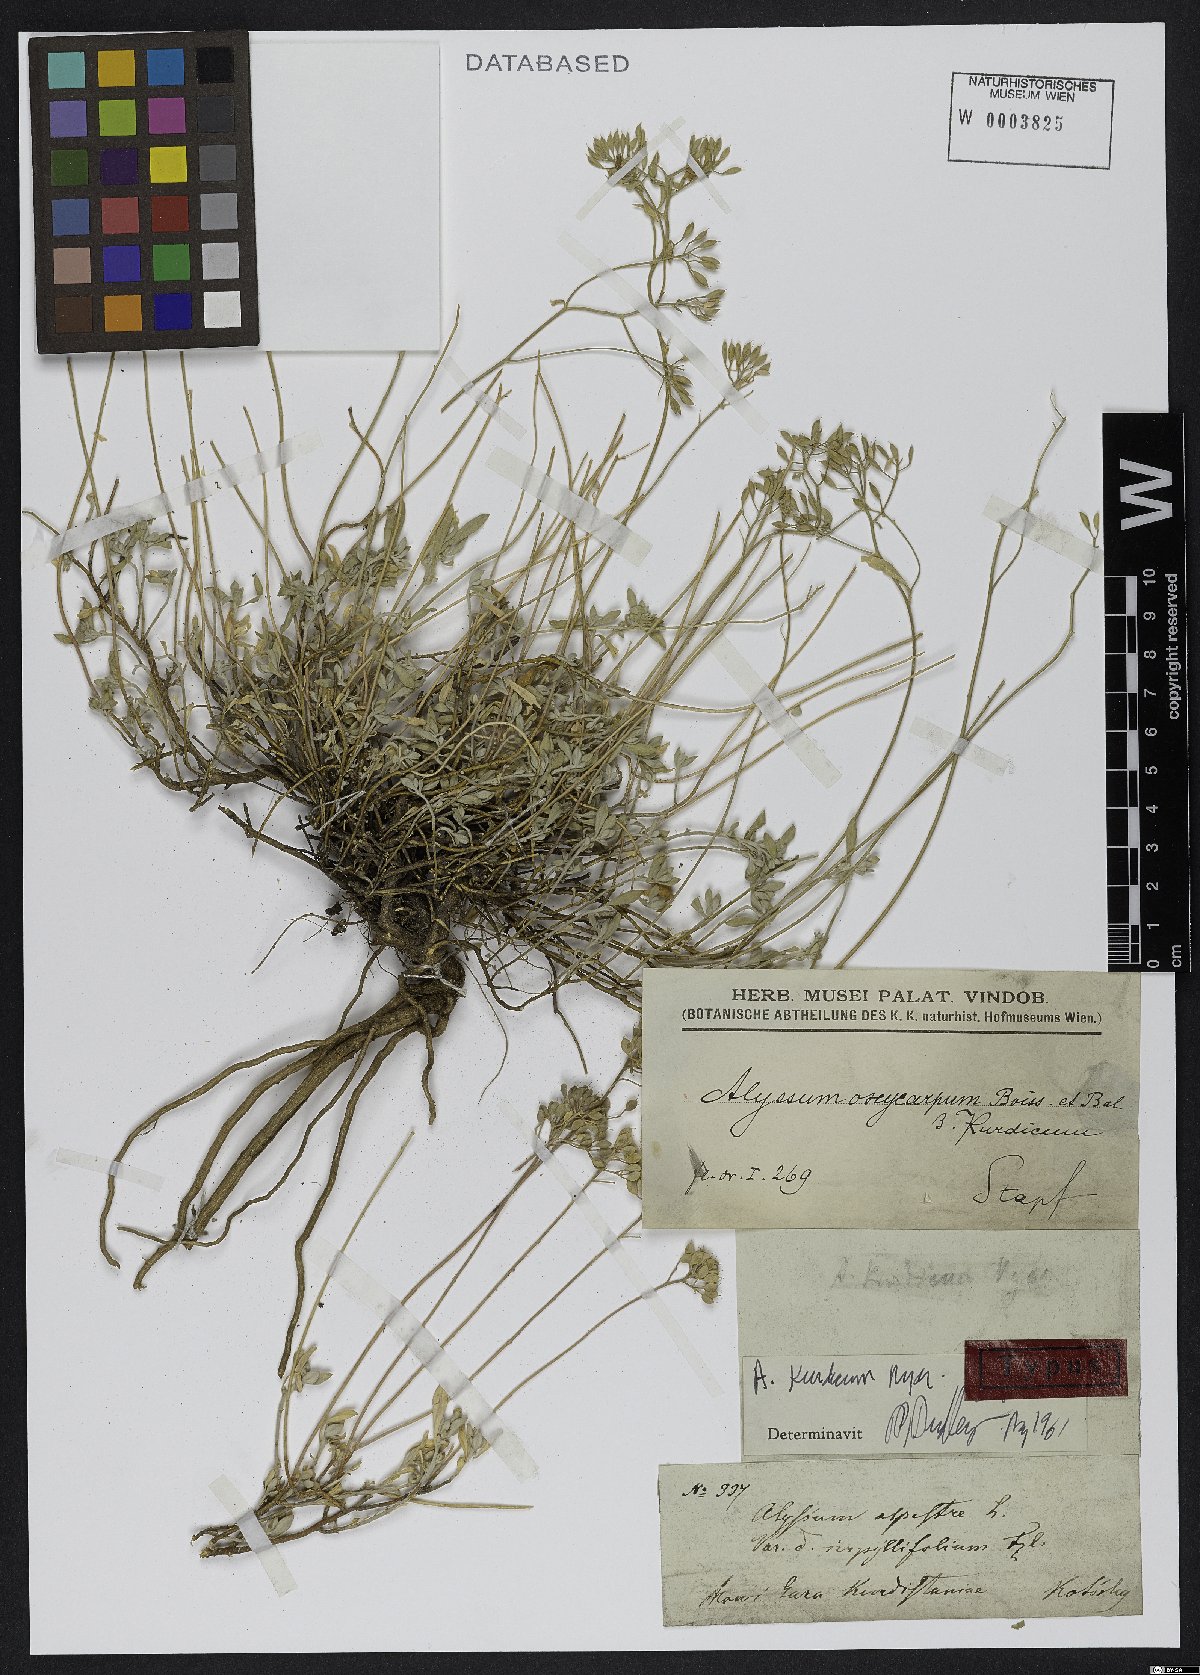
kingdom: Plantae
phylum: Tracheophyta
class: Magnoliopsida
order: Brassicales
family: Brassicaceae
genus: Odontarrhena
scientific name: Odontarrhena kurdica
